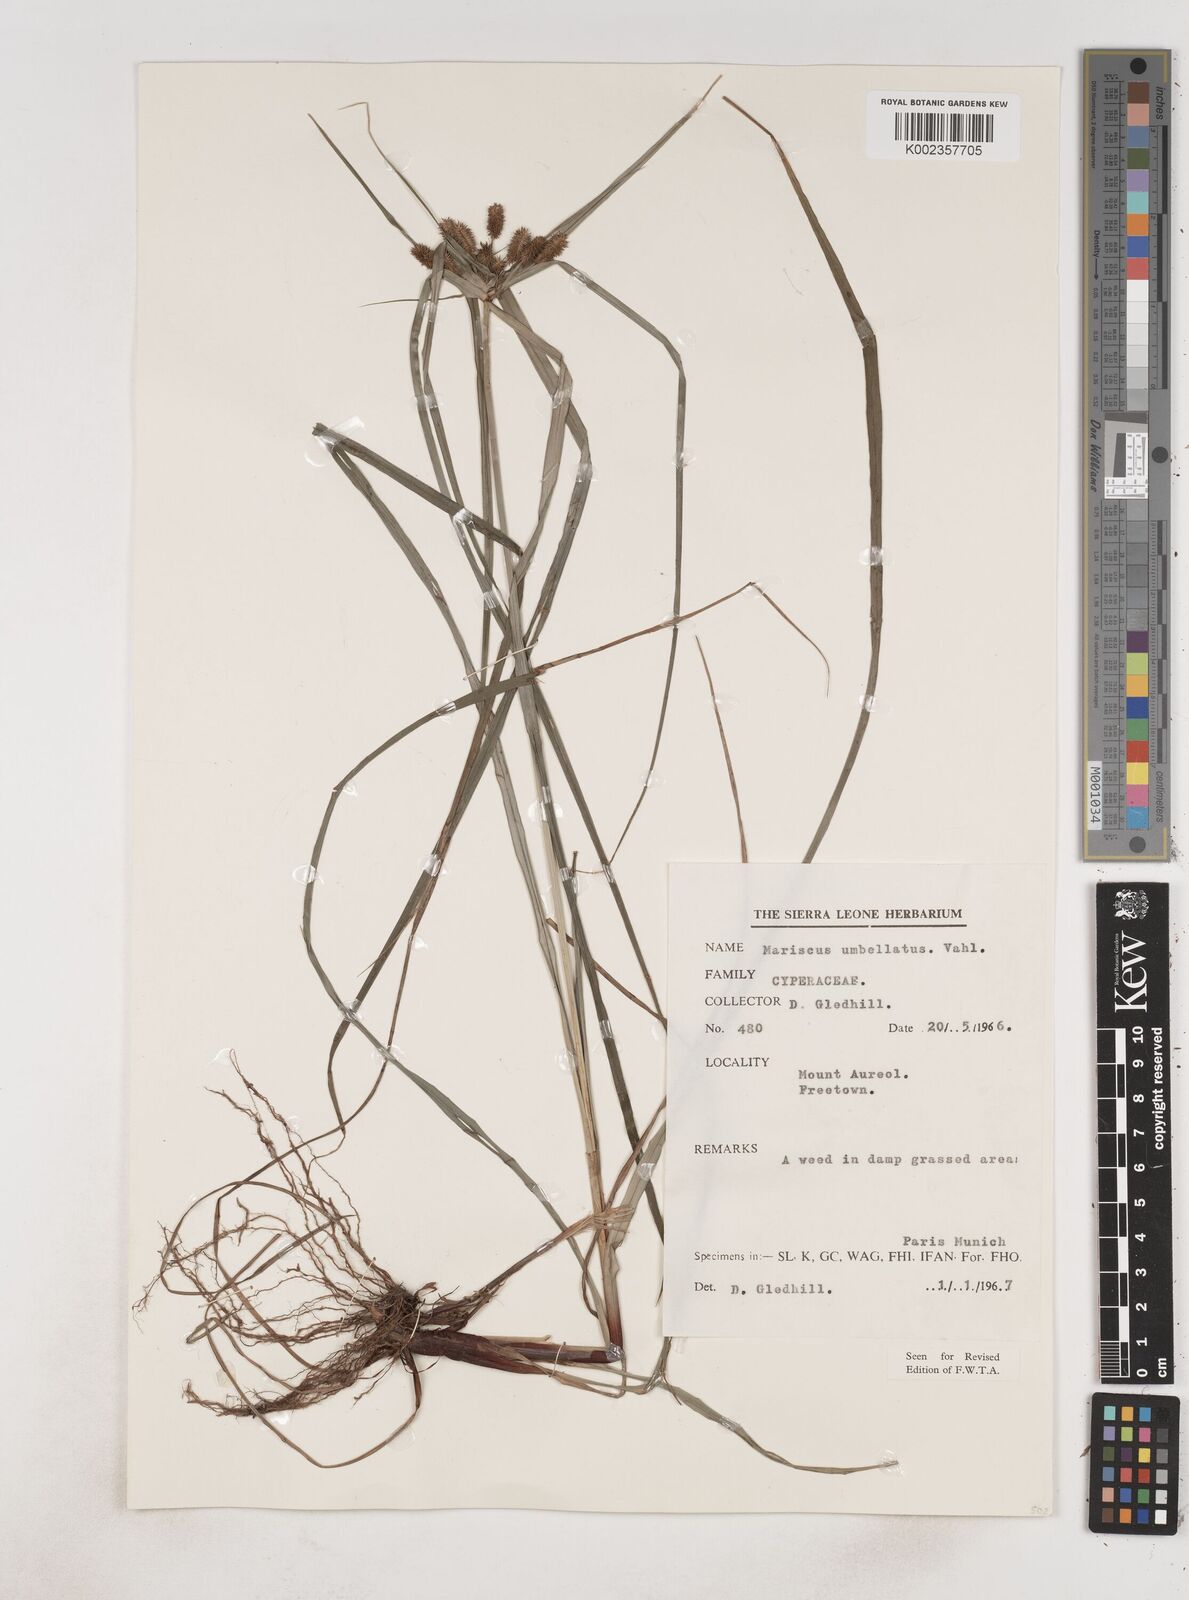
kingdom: Plantae
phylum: Tracheophyta
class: Liliopsida
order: Poales
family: Cyperaceae
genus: Cyperus
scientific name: Cyperus sublimis
